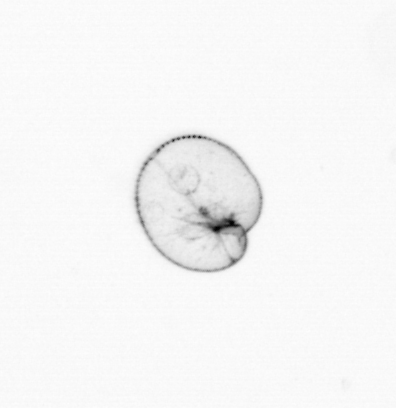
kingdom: Chromista
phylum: Myzozoa
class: Dinophyceae
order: Noctilucales
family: Noctilucaceae
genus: Noctiluca
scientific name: Noctiluca scintillans
